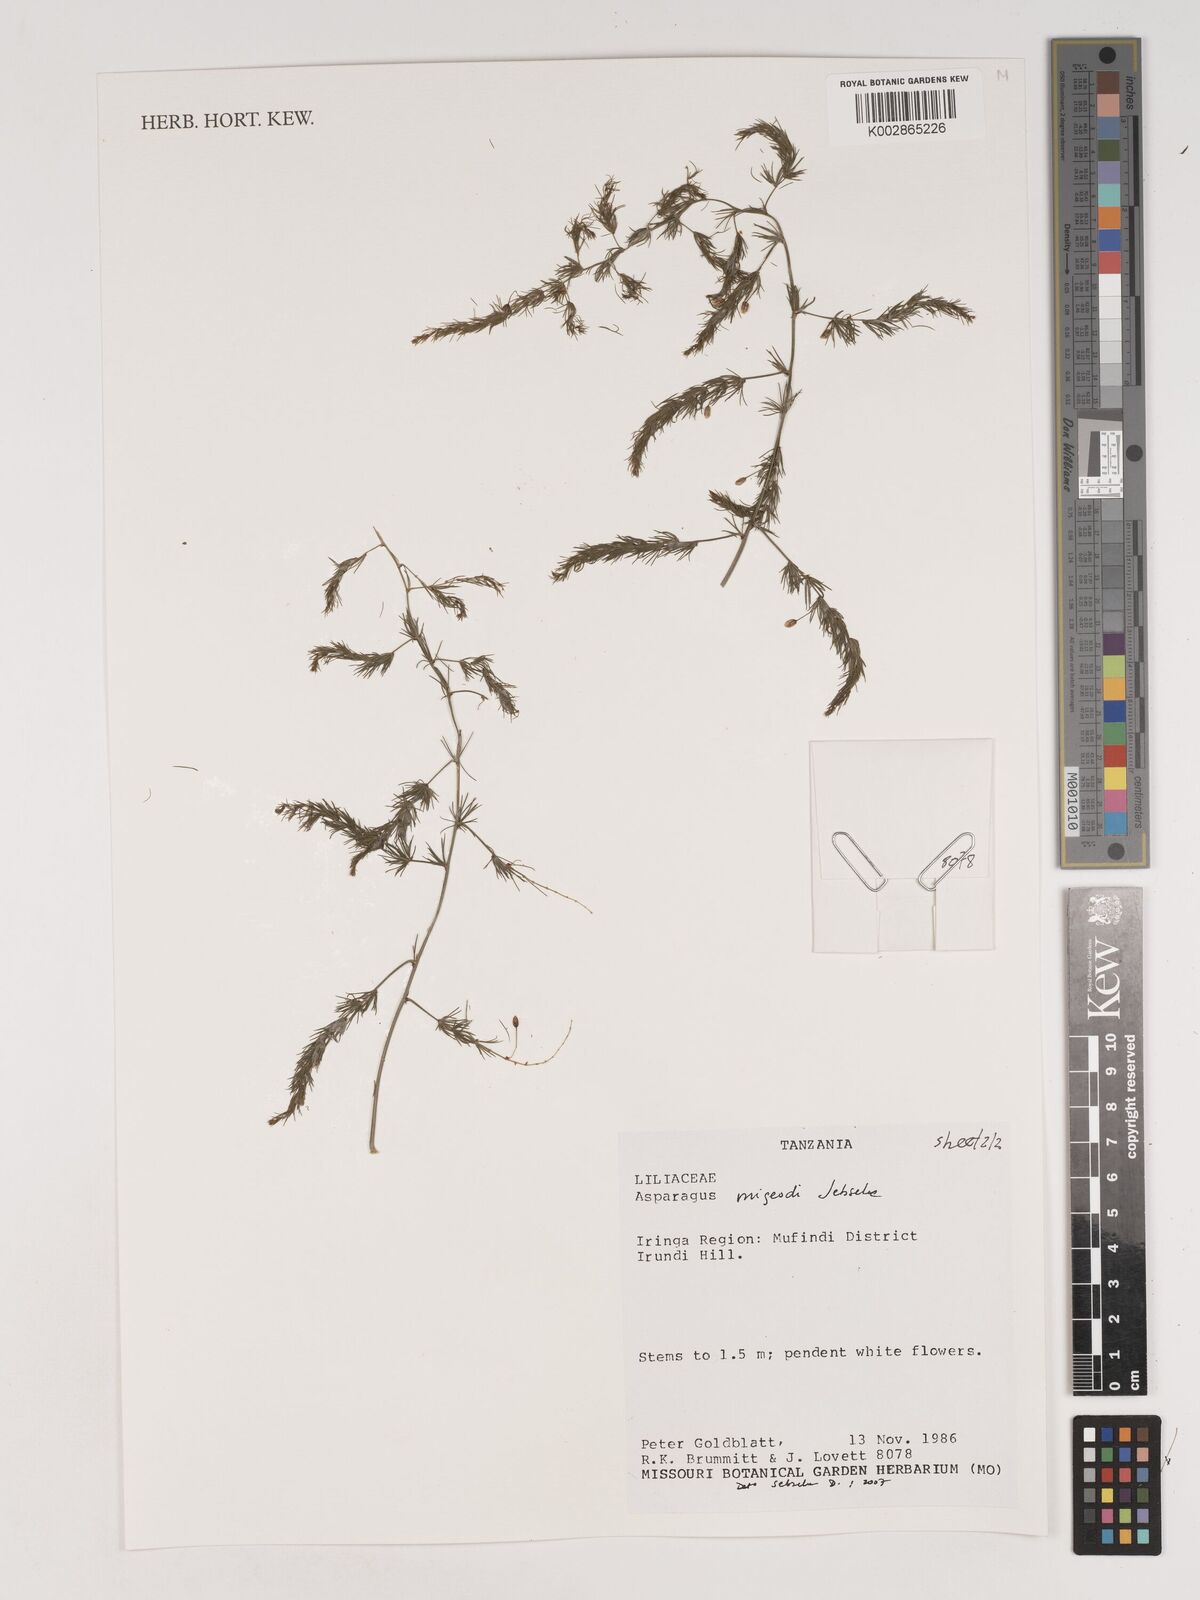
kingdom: Plantae
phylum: Tracheophyta
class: Liliopsida
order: Asparagales
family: Asparagaceae
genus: Asparagus
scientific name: Asparagus
